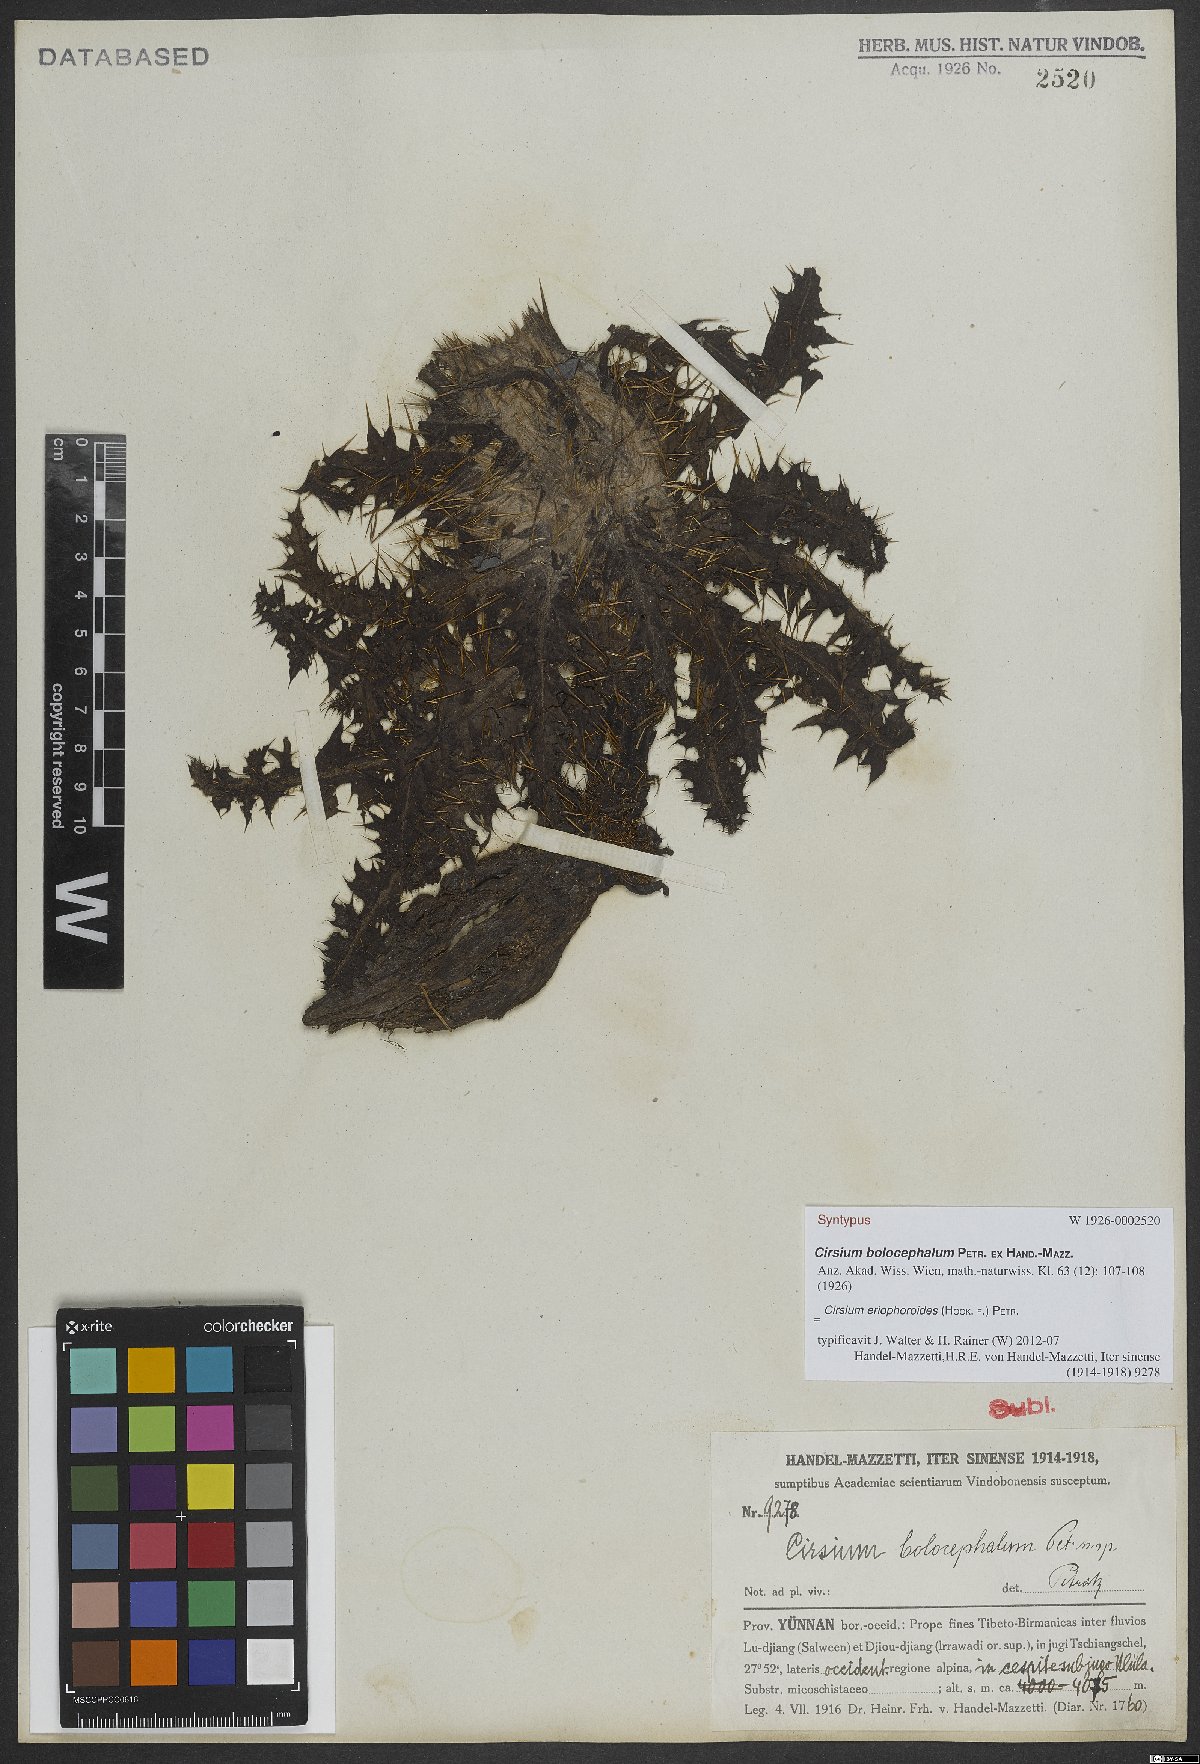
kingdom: Plantae
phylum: Tracheophyta
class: Magnoliopsida
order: Asterales
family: Asteraceae
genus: Cirsium
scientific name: Cirsium eriophoroides
